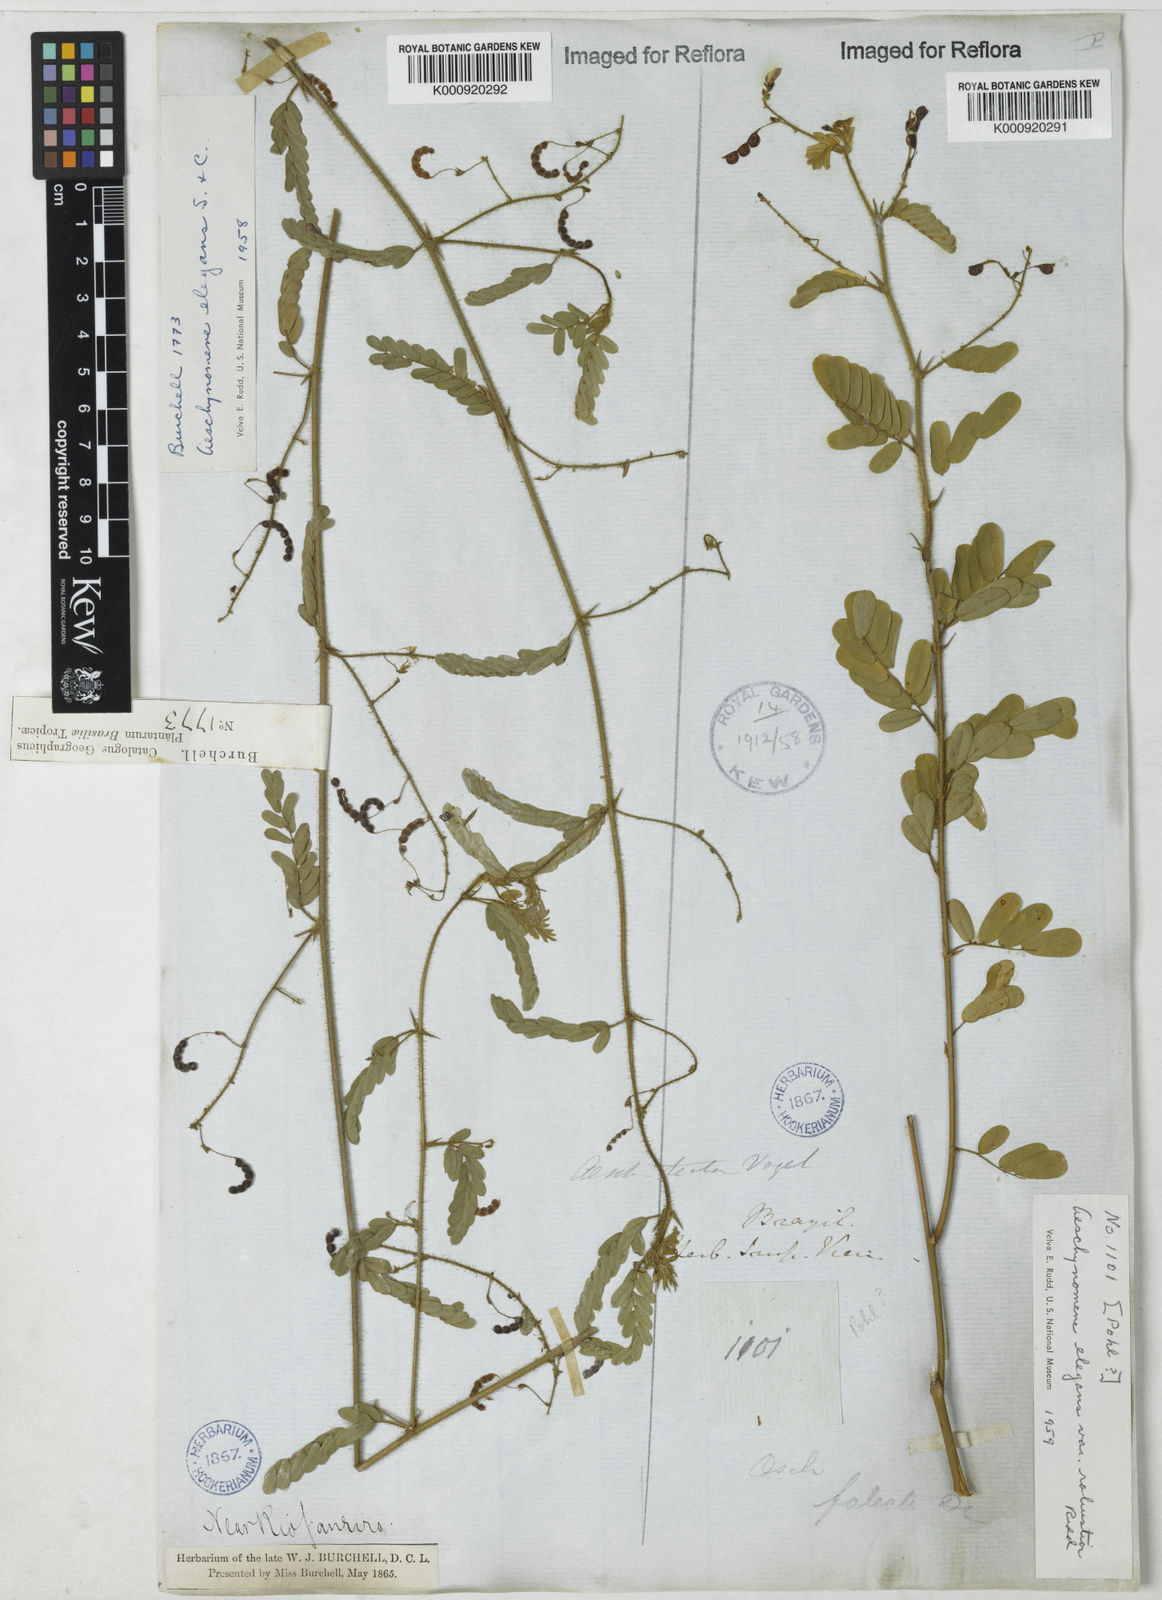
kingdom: Plantae
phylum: Tracheophyta
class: Magnoliopsida
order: Fabales
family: Fabaceae
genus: Ctenodon
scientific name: Ctenodon elegans
